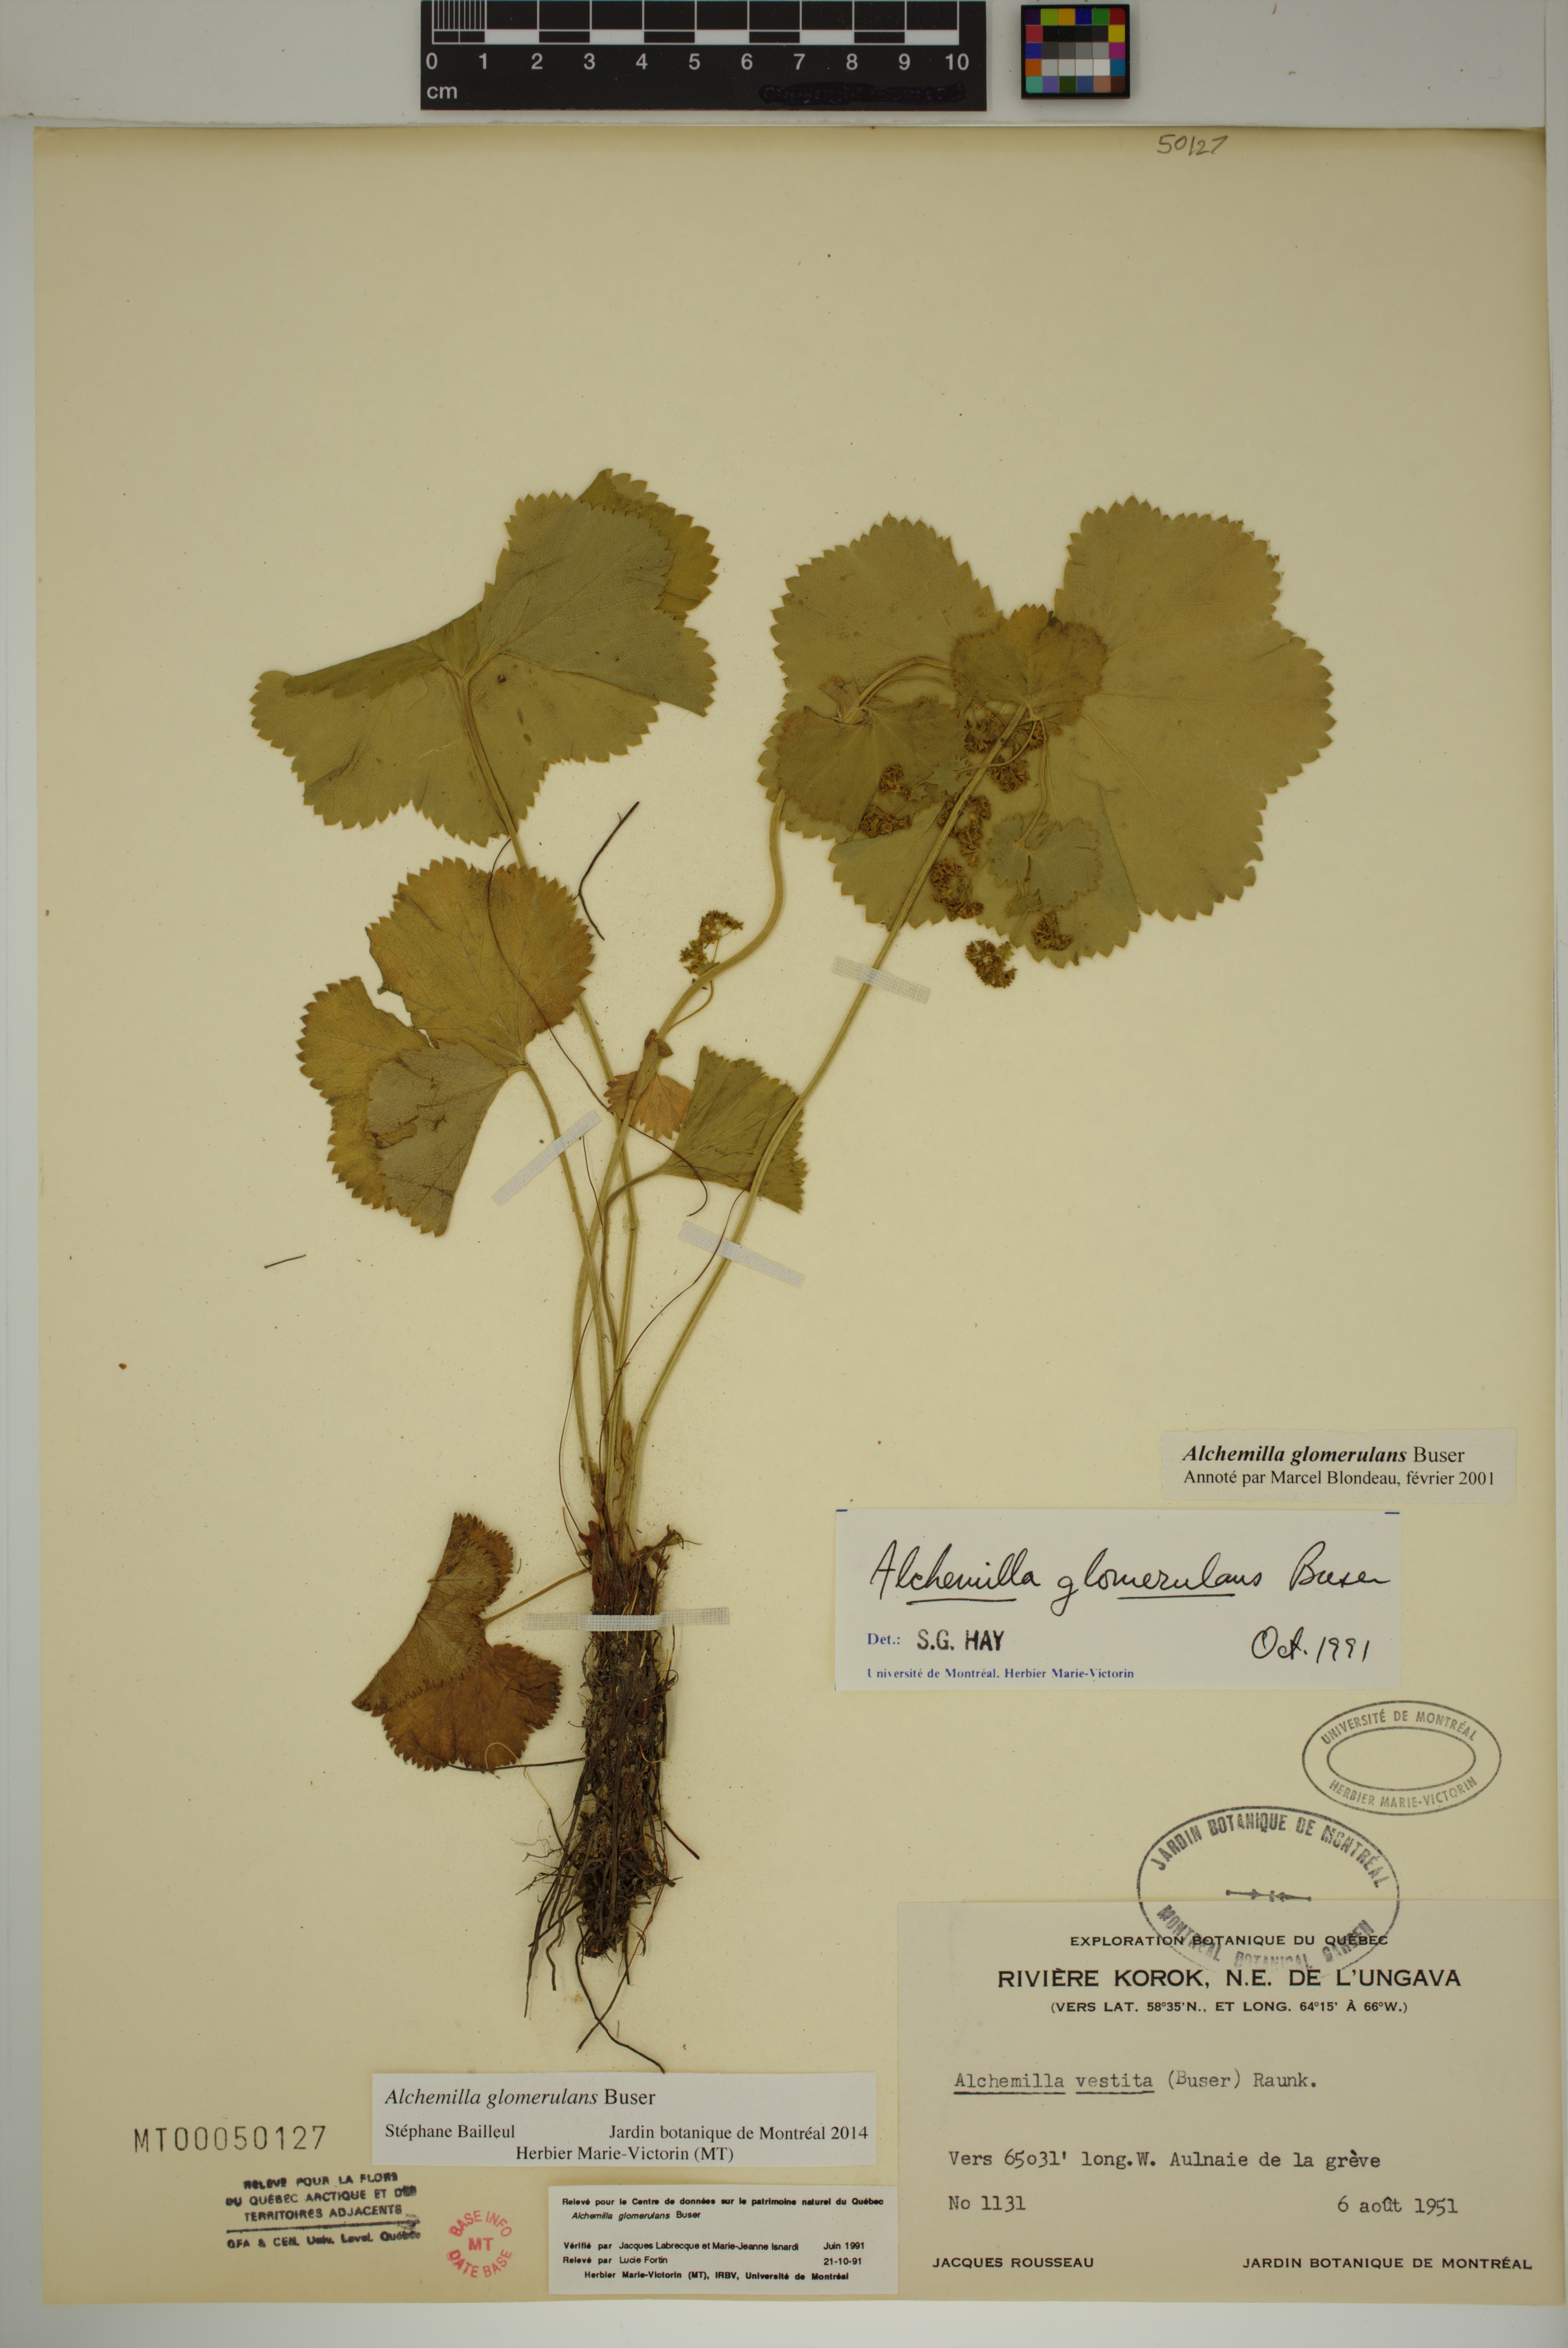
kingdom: Plantae
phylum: Tracheophyta
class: Magnoliopsida
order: Rosales
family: Rosaceae
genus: Alchemilla
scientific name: Alchemilla glomerulans
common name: Clustered lady's mantle
